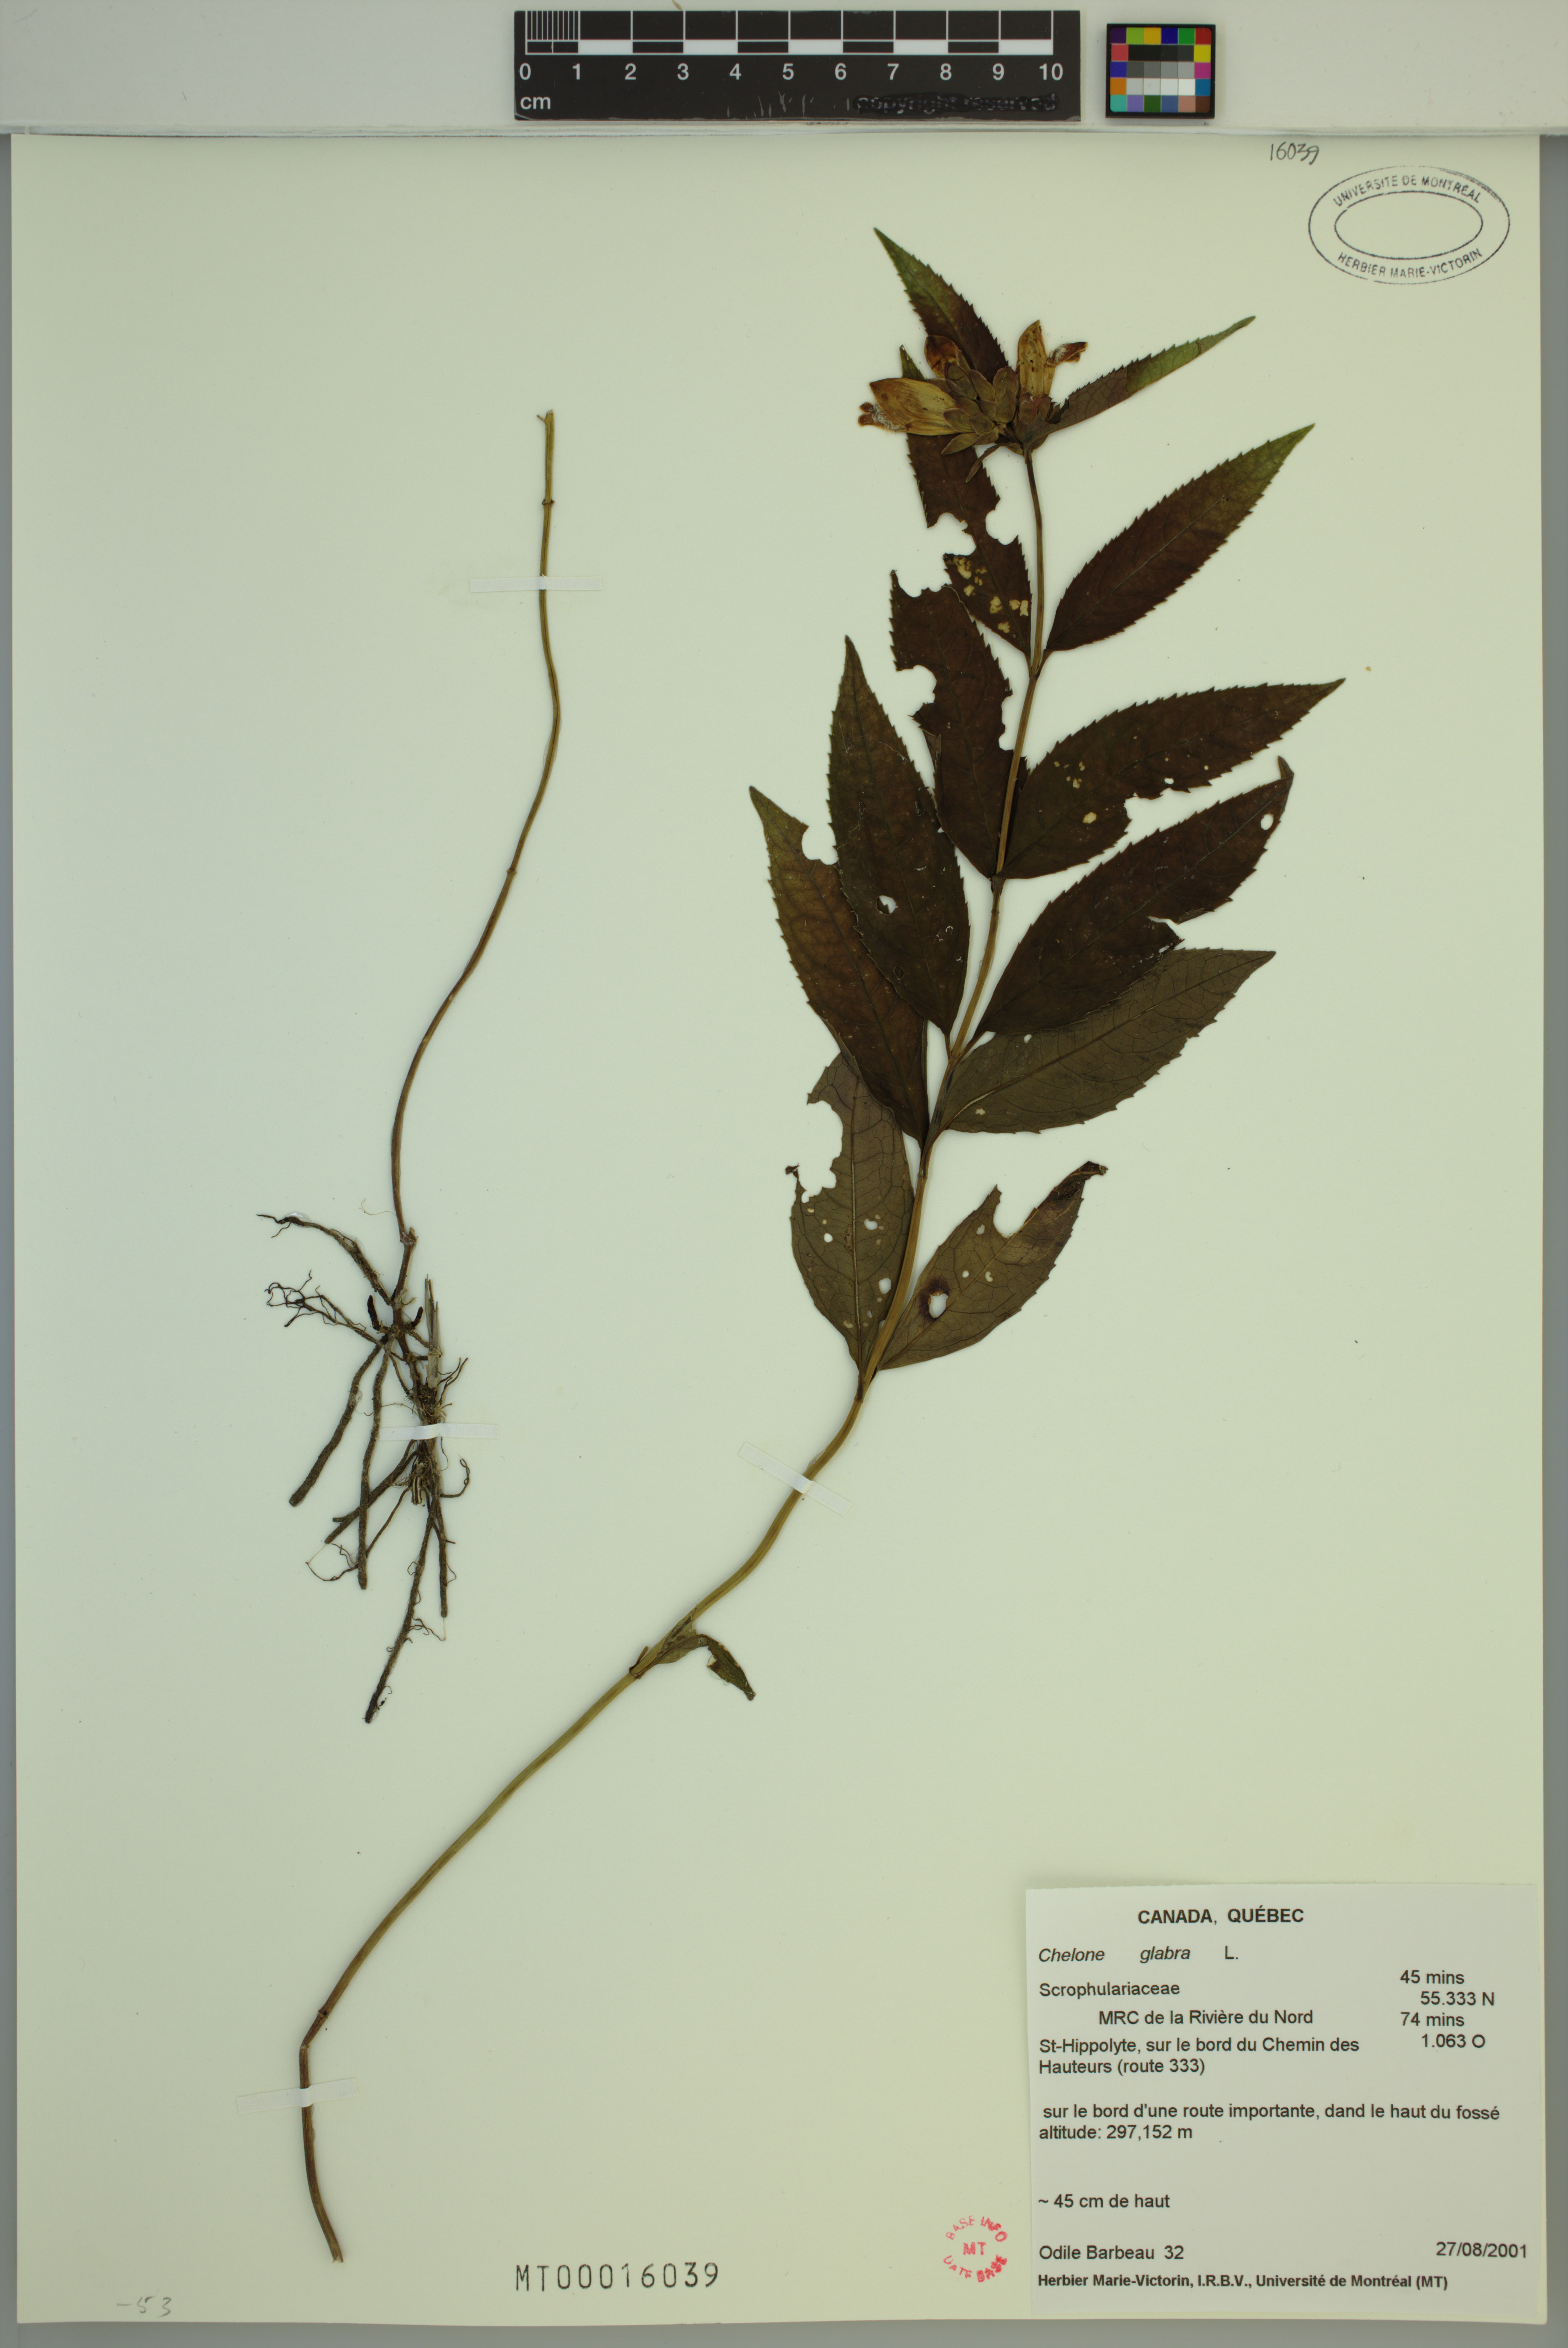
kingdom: Plantae
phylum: Tracheophyta
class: Magnoliopsida
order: Lamiales
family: Plantaginaceae
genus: Chelone
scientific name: Chelone glabra
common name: Snakehead
